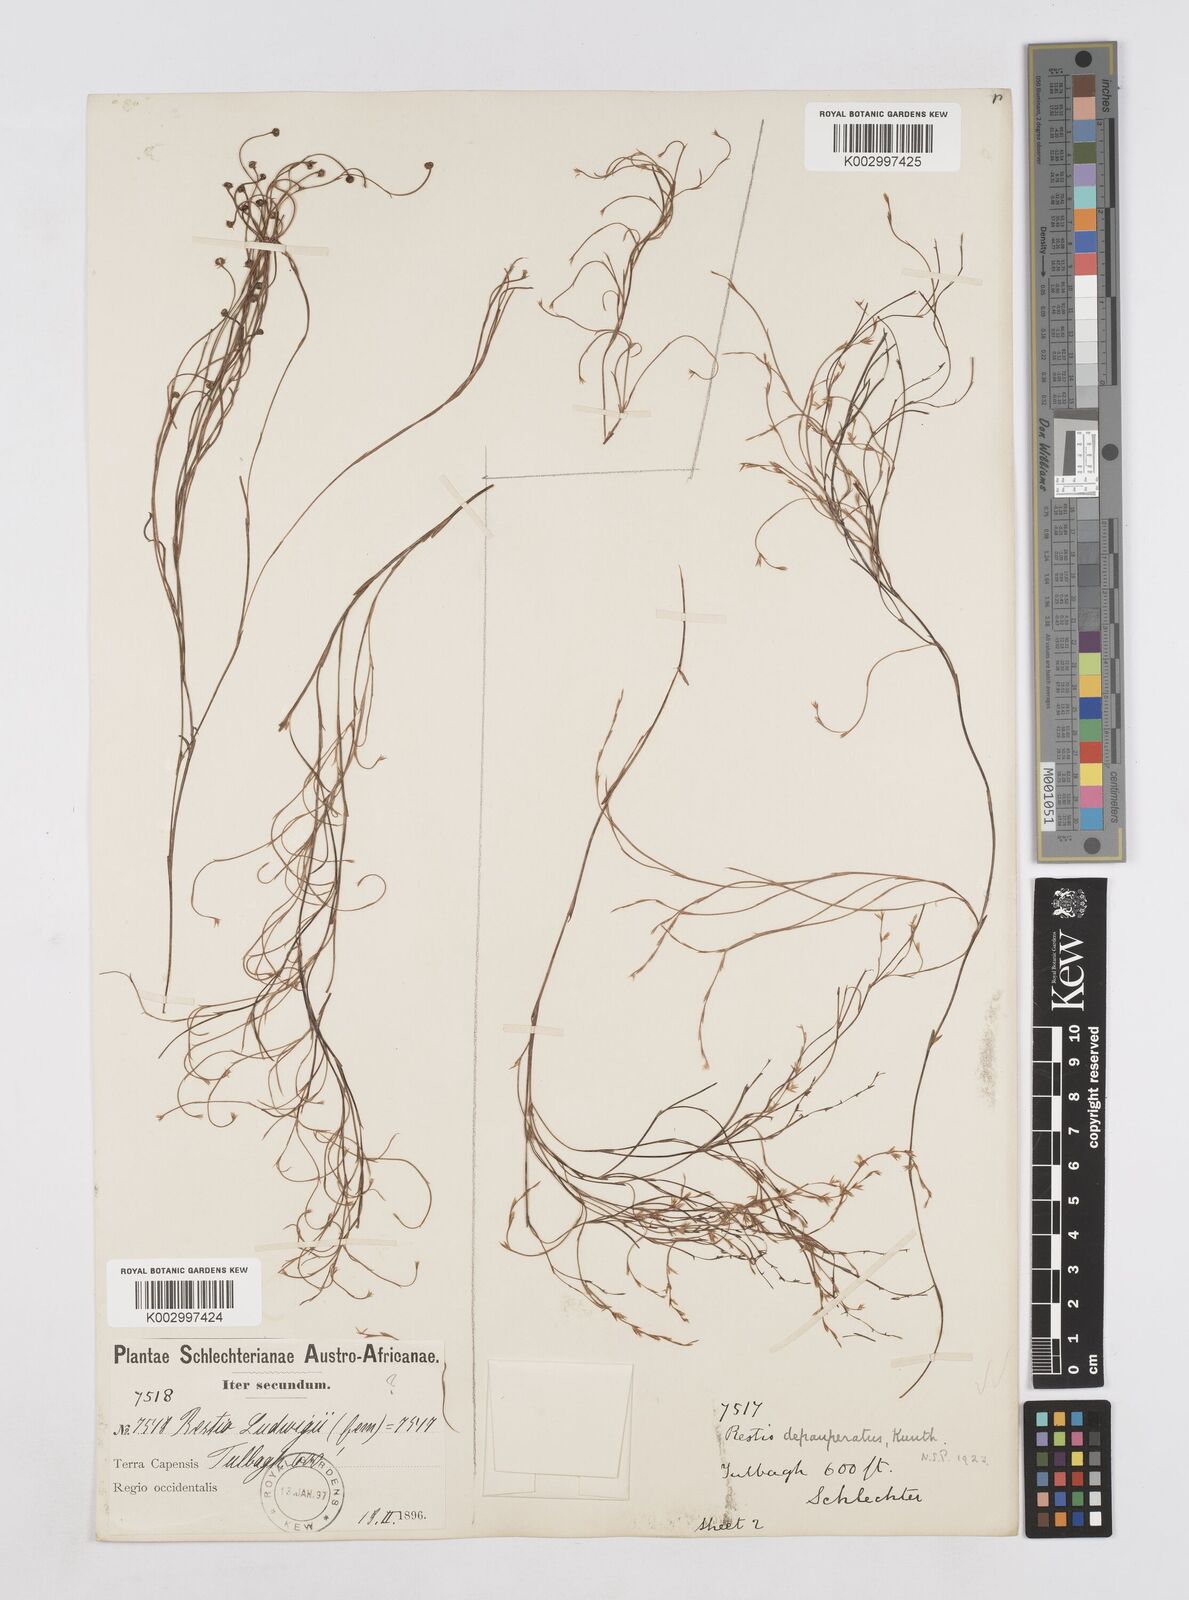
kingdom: Plantae
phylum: Tracheophyta
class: Liliopsida
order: Poales
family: Restionaceae
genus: Platycaulos
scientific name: Platycaulos depauperatus
